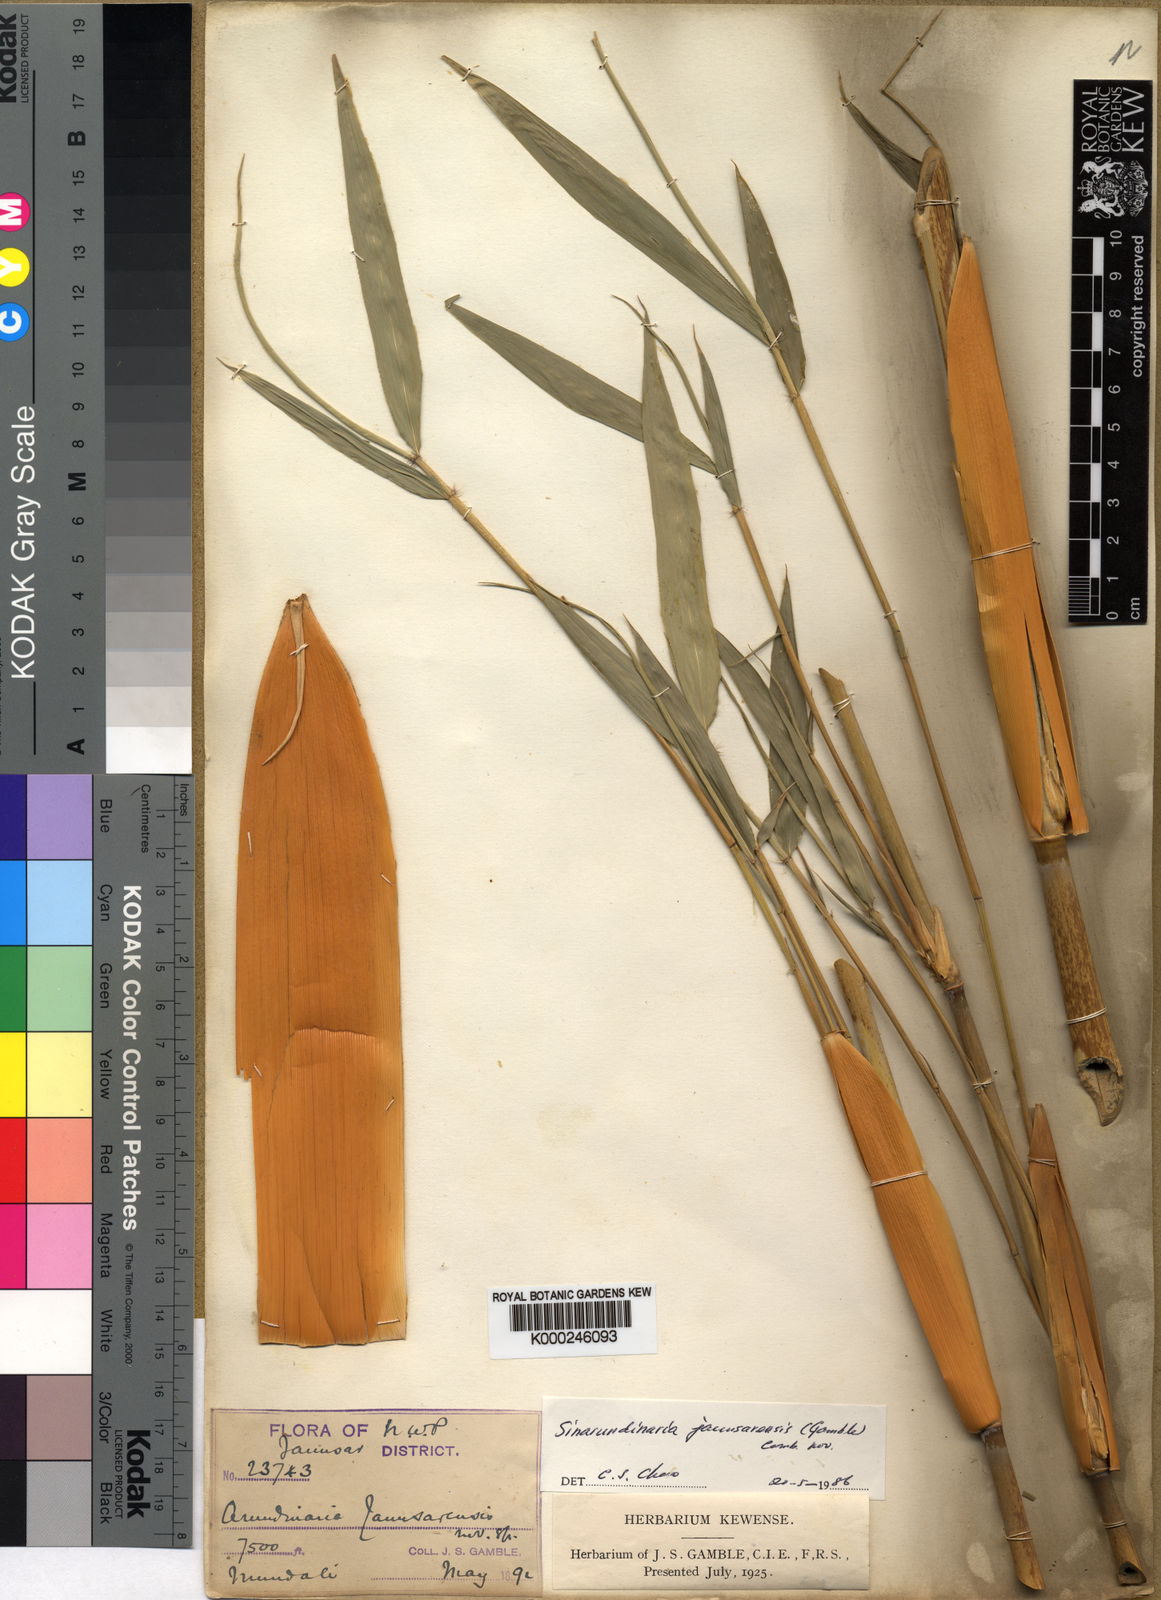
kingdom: Plantae
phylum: Tracheophyta
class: Liliopsida
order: Poales
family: Poaceae
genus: Yushania
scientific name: Yushania anceps
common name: Indian fountain-bamboo
